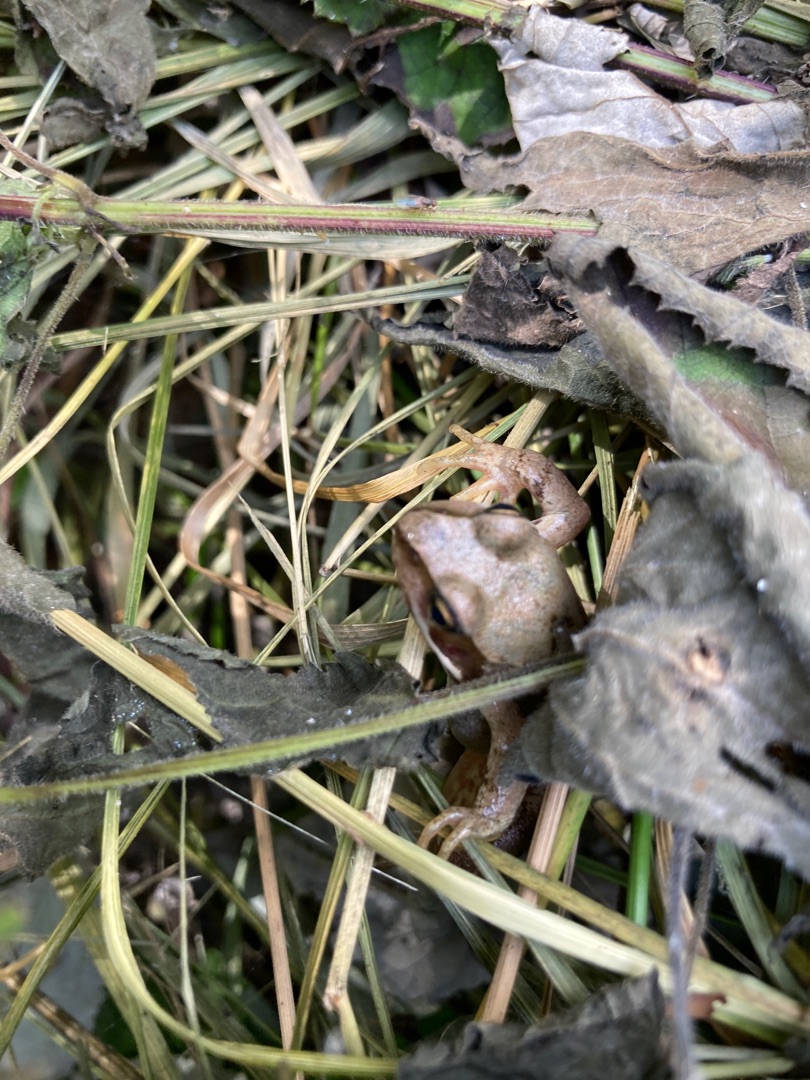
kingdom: Animalia
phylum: Chordata
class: Amphibia
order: Anura
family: Ranidae
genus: Rana
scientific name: Rana temporaria
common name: Butsnudet frø
